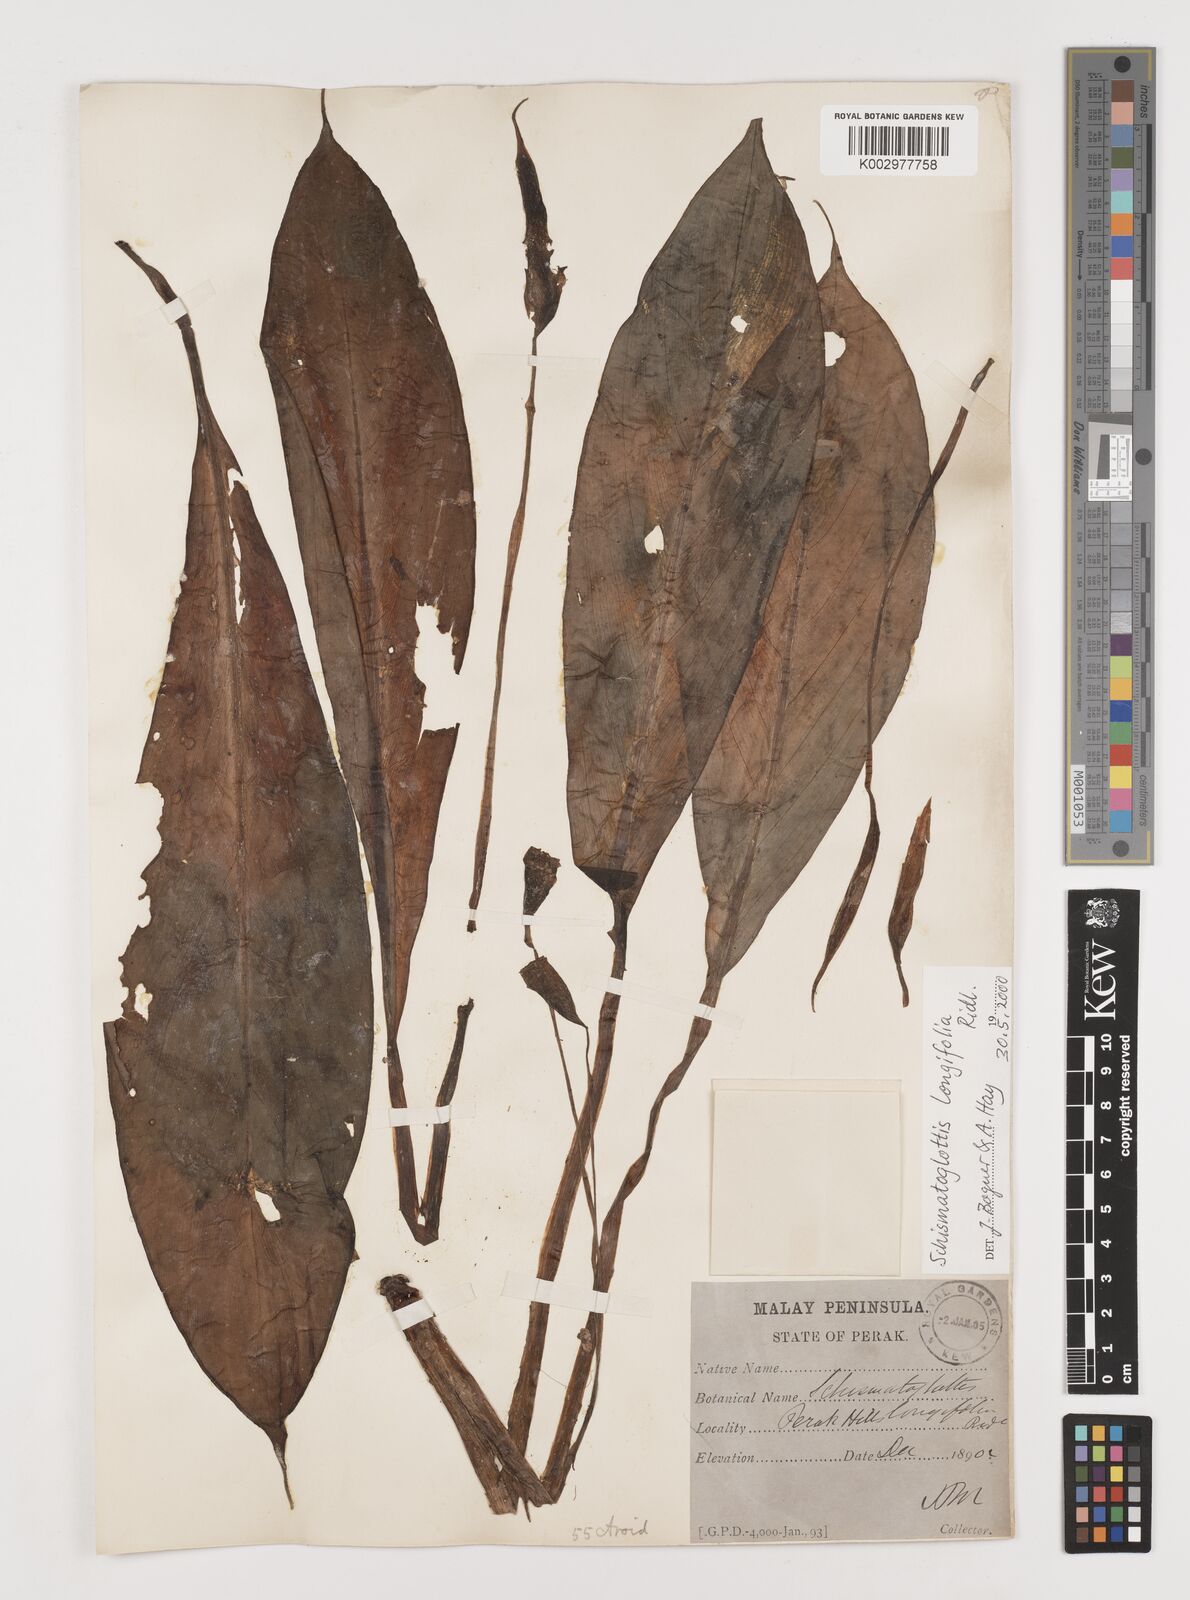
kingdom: Plantae
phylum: Tracheophyta
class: Liliopsida
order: Alismatales
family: Araceae
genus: Vesta
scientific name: Vesta longifolia
